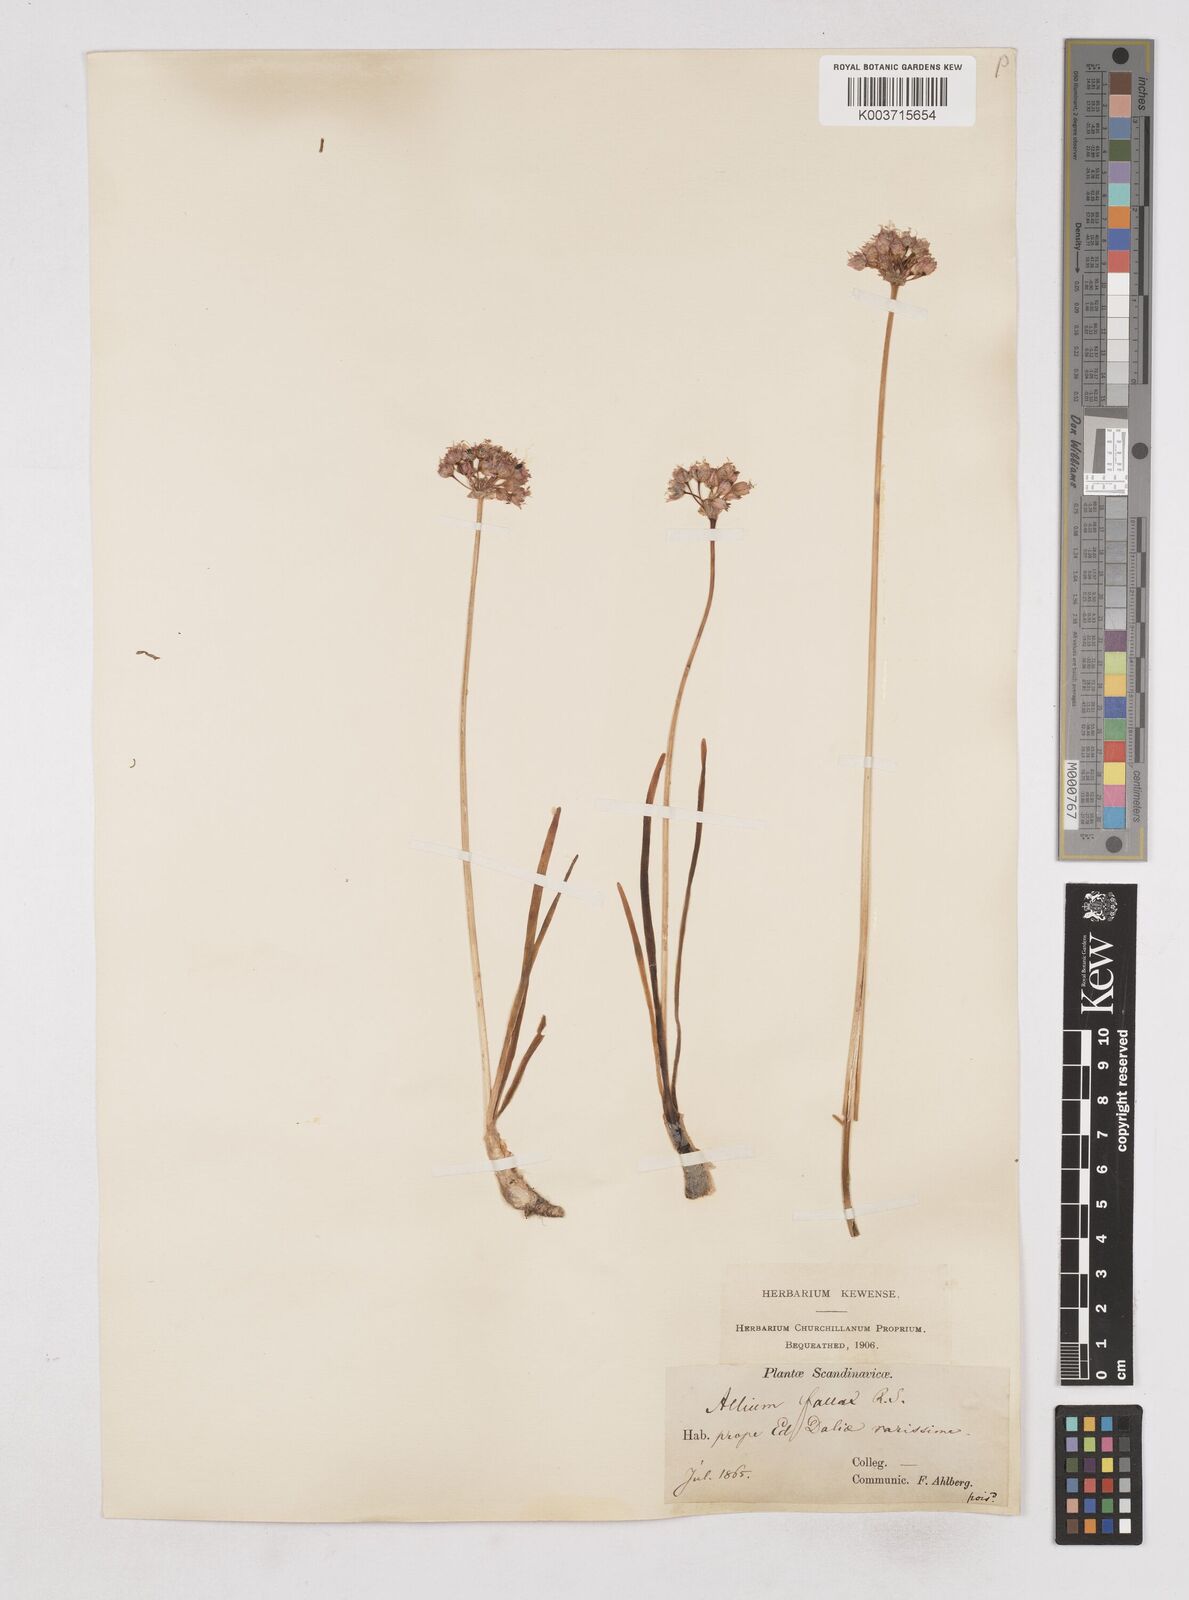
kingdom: Plantae
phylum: Tracheophyta
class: Liliopsida
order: Asparagales
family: Amaryllidaceae
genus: Allium
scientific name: Allium
